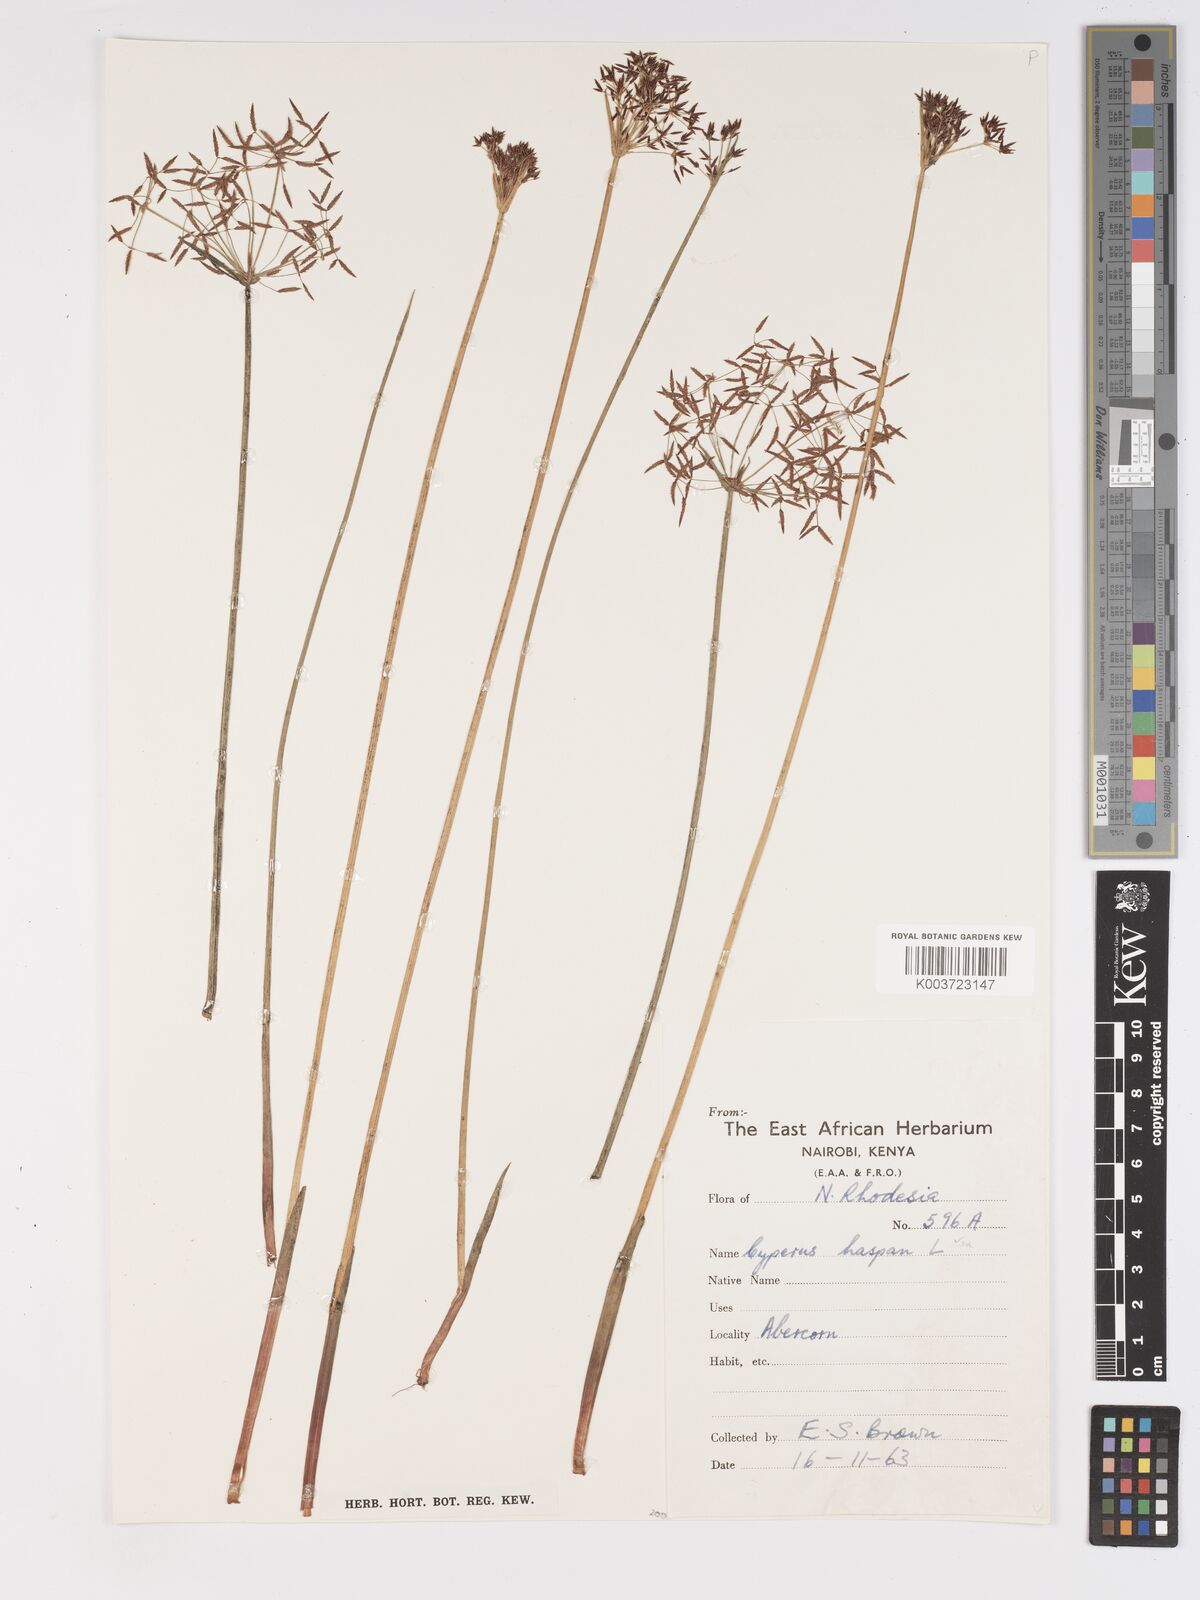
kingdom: Plantae
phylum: Tracheophyta
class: Liliopsida
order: Poales
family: Cyperaceae
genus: Cyperus
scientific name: Cyperus haspan
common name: Haspan flatsedge
